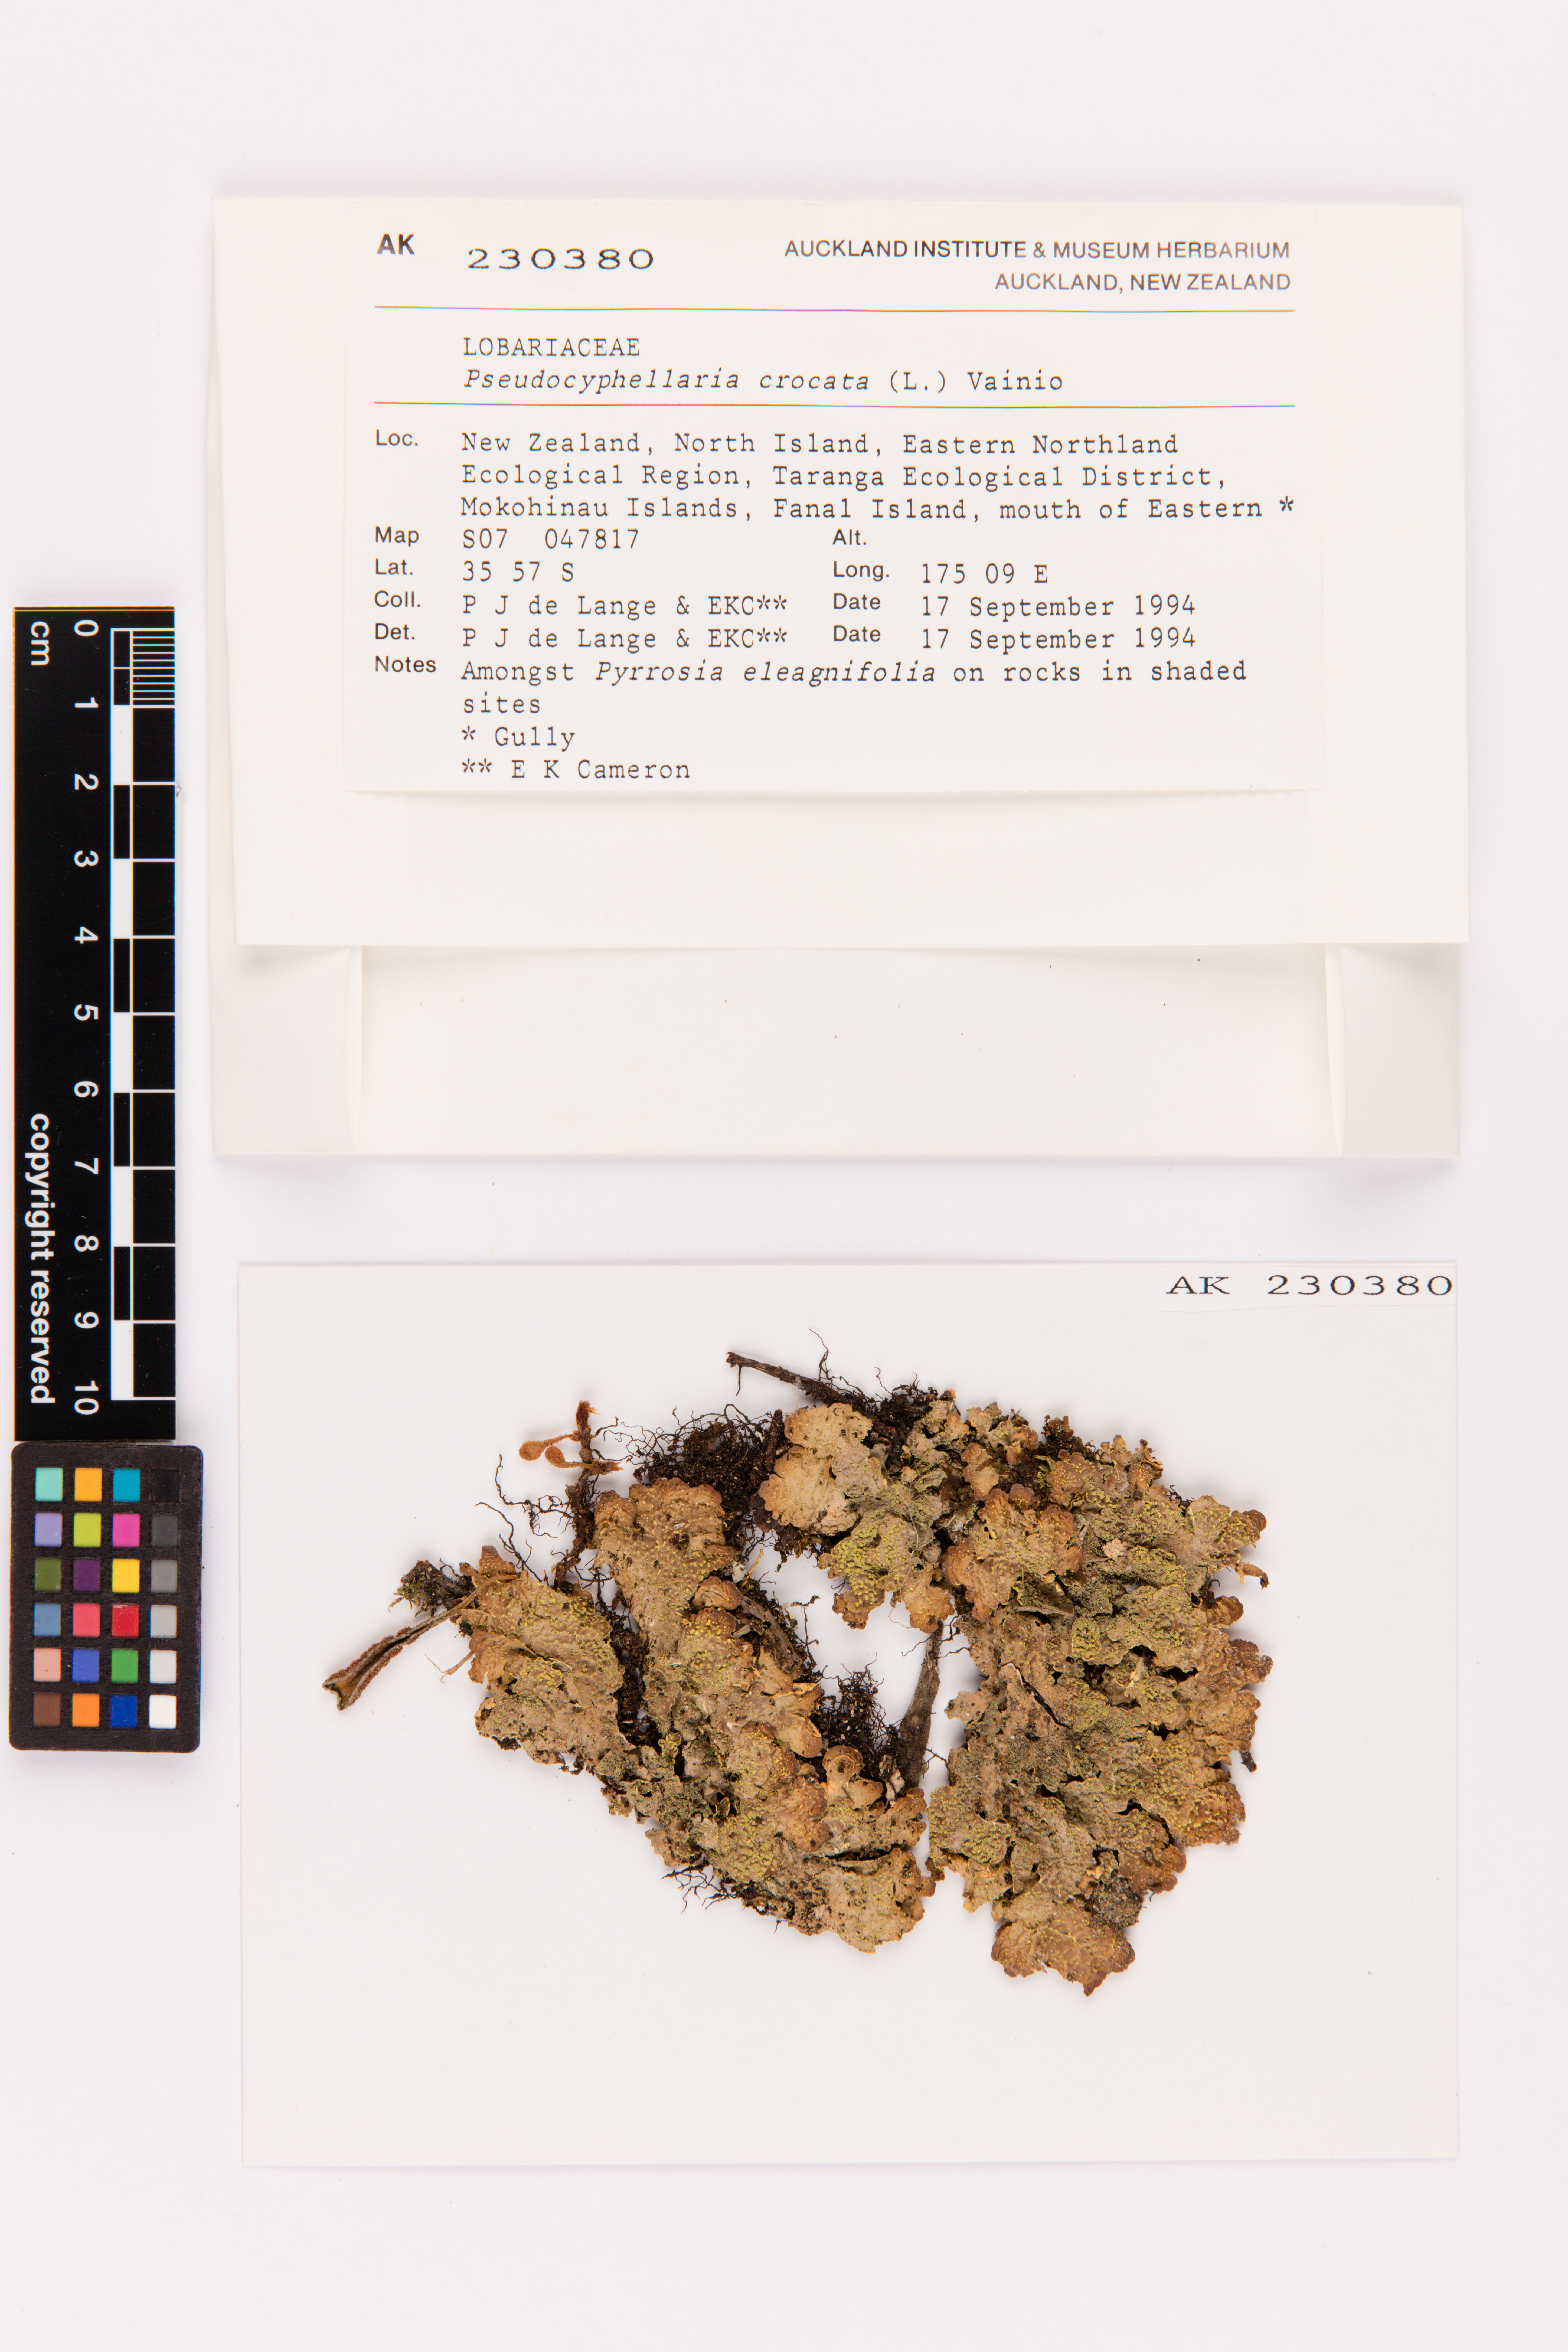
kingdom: Fungi
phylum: Ascomycota
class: Lecanoromycetes
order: Peltigerales
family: Lobariaceae
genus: Pseudocyphellaria
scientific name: Pseudocyphellaria crocata
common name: Golden specklebelly
